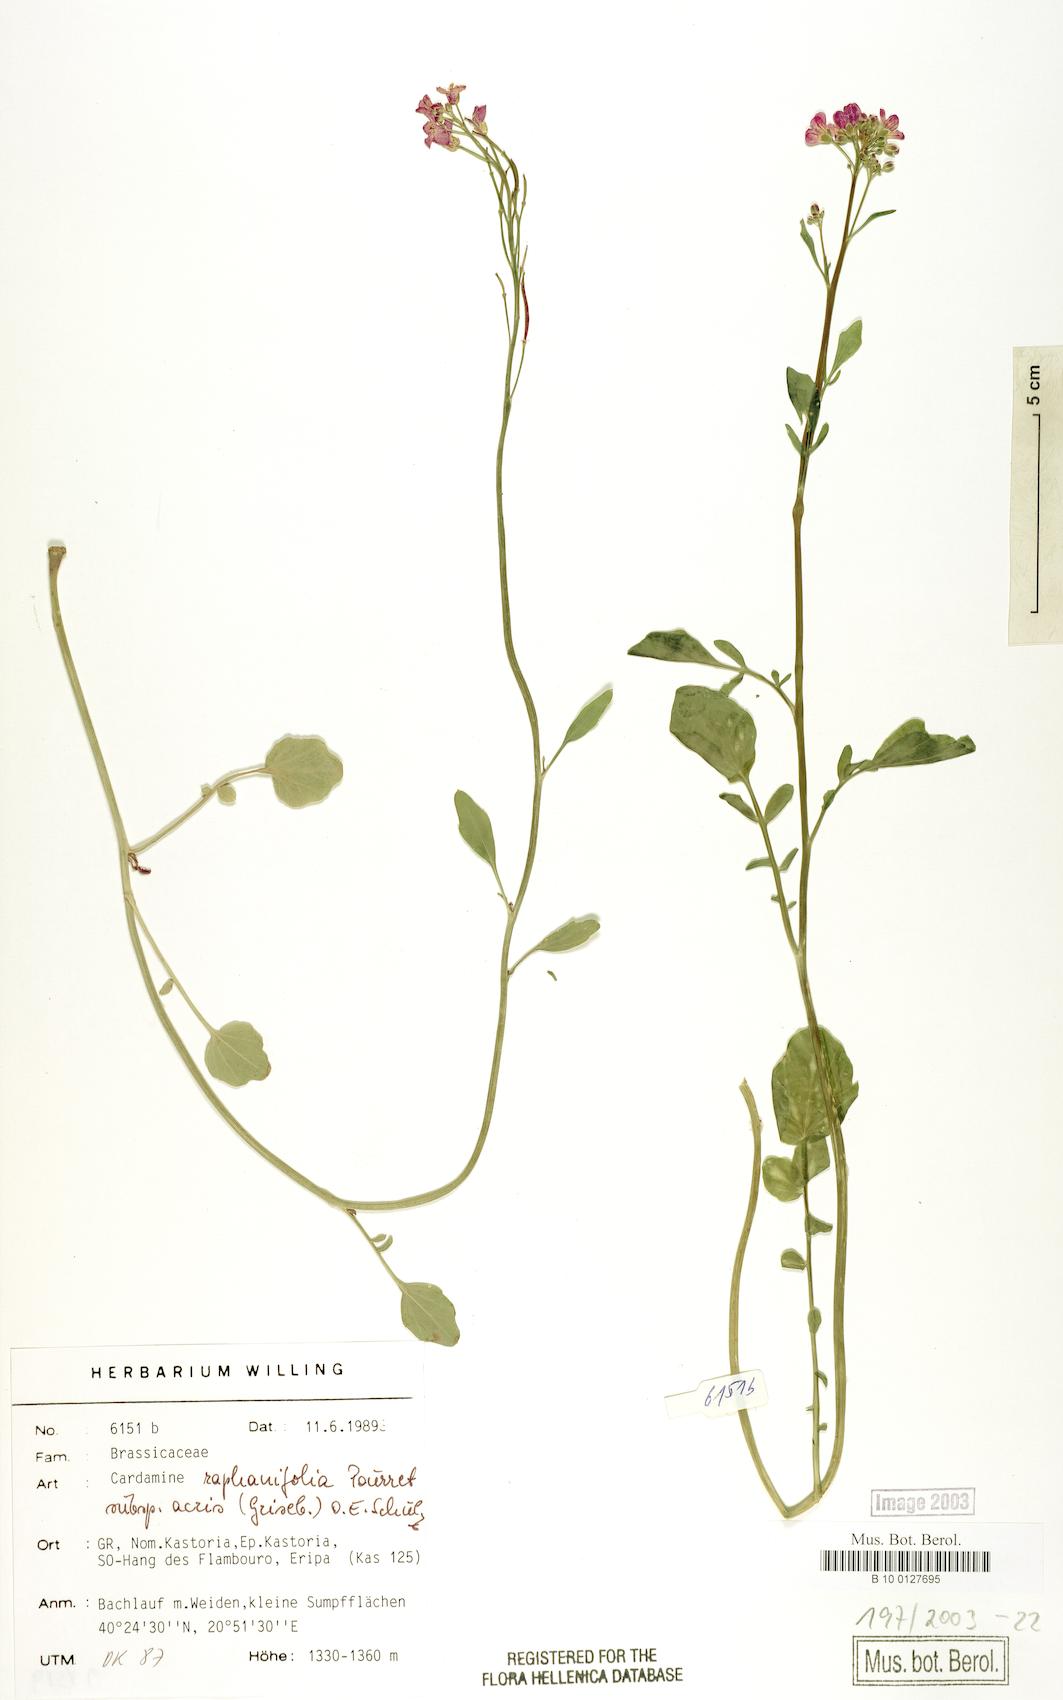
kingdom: Plantae
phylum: Tracheophyta
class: Magnoliopsida
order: Brassicales
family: Brassicaceae
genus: Cardamine
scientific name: Cardamine raphanifolia
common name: Greater cuckooflower
